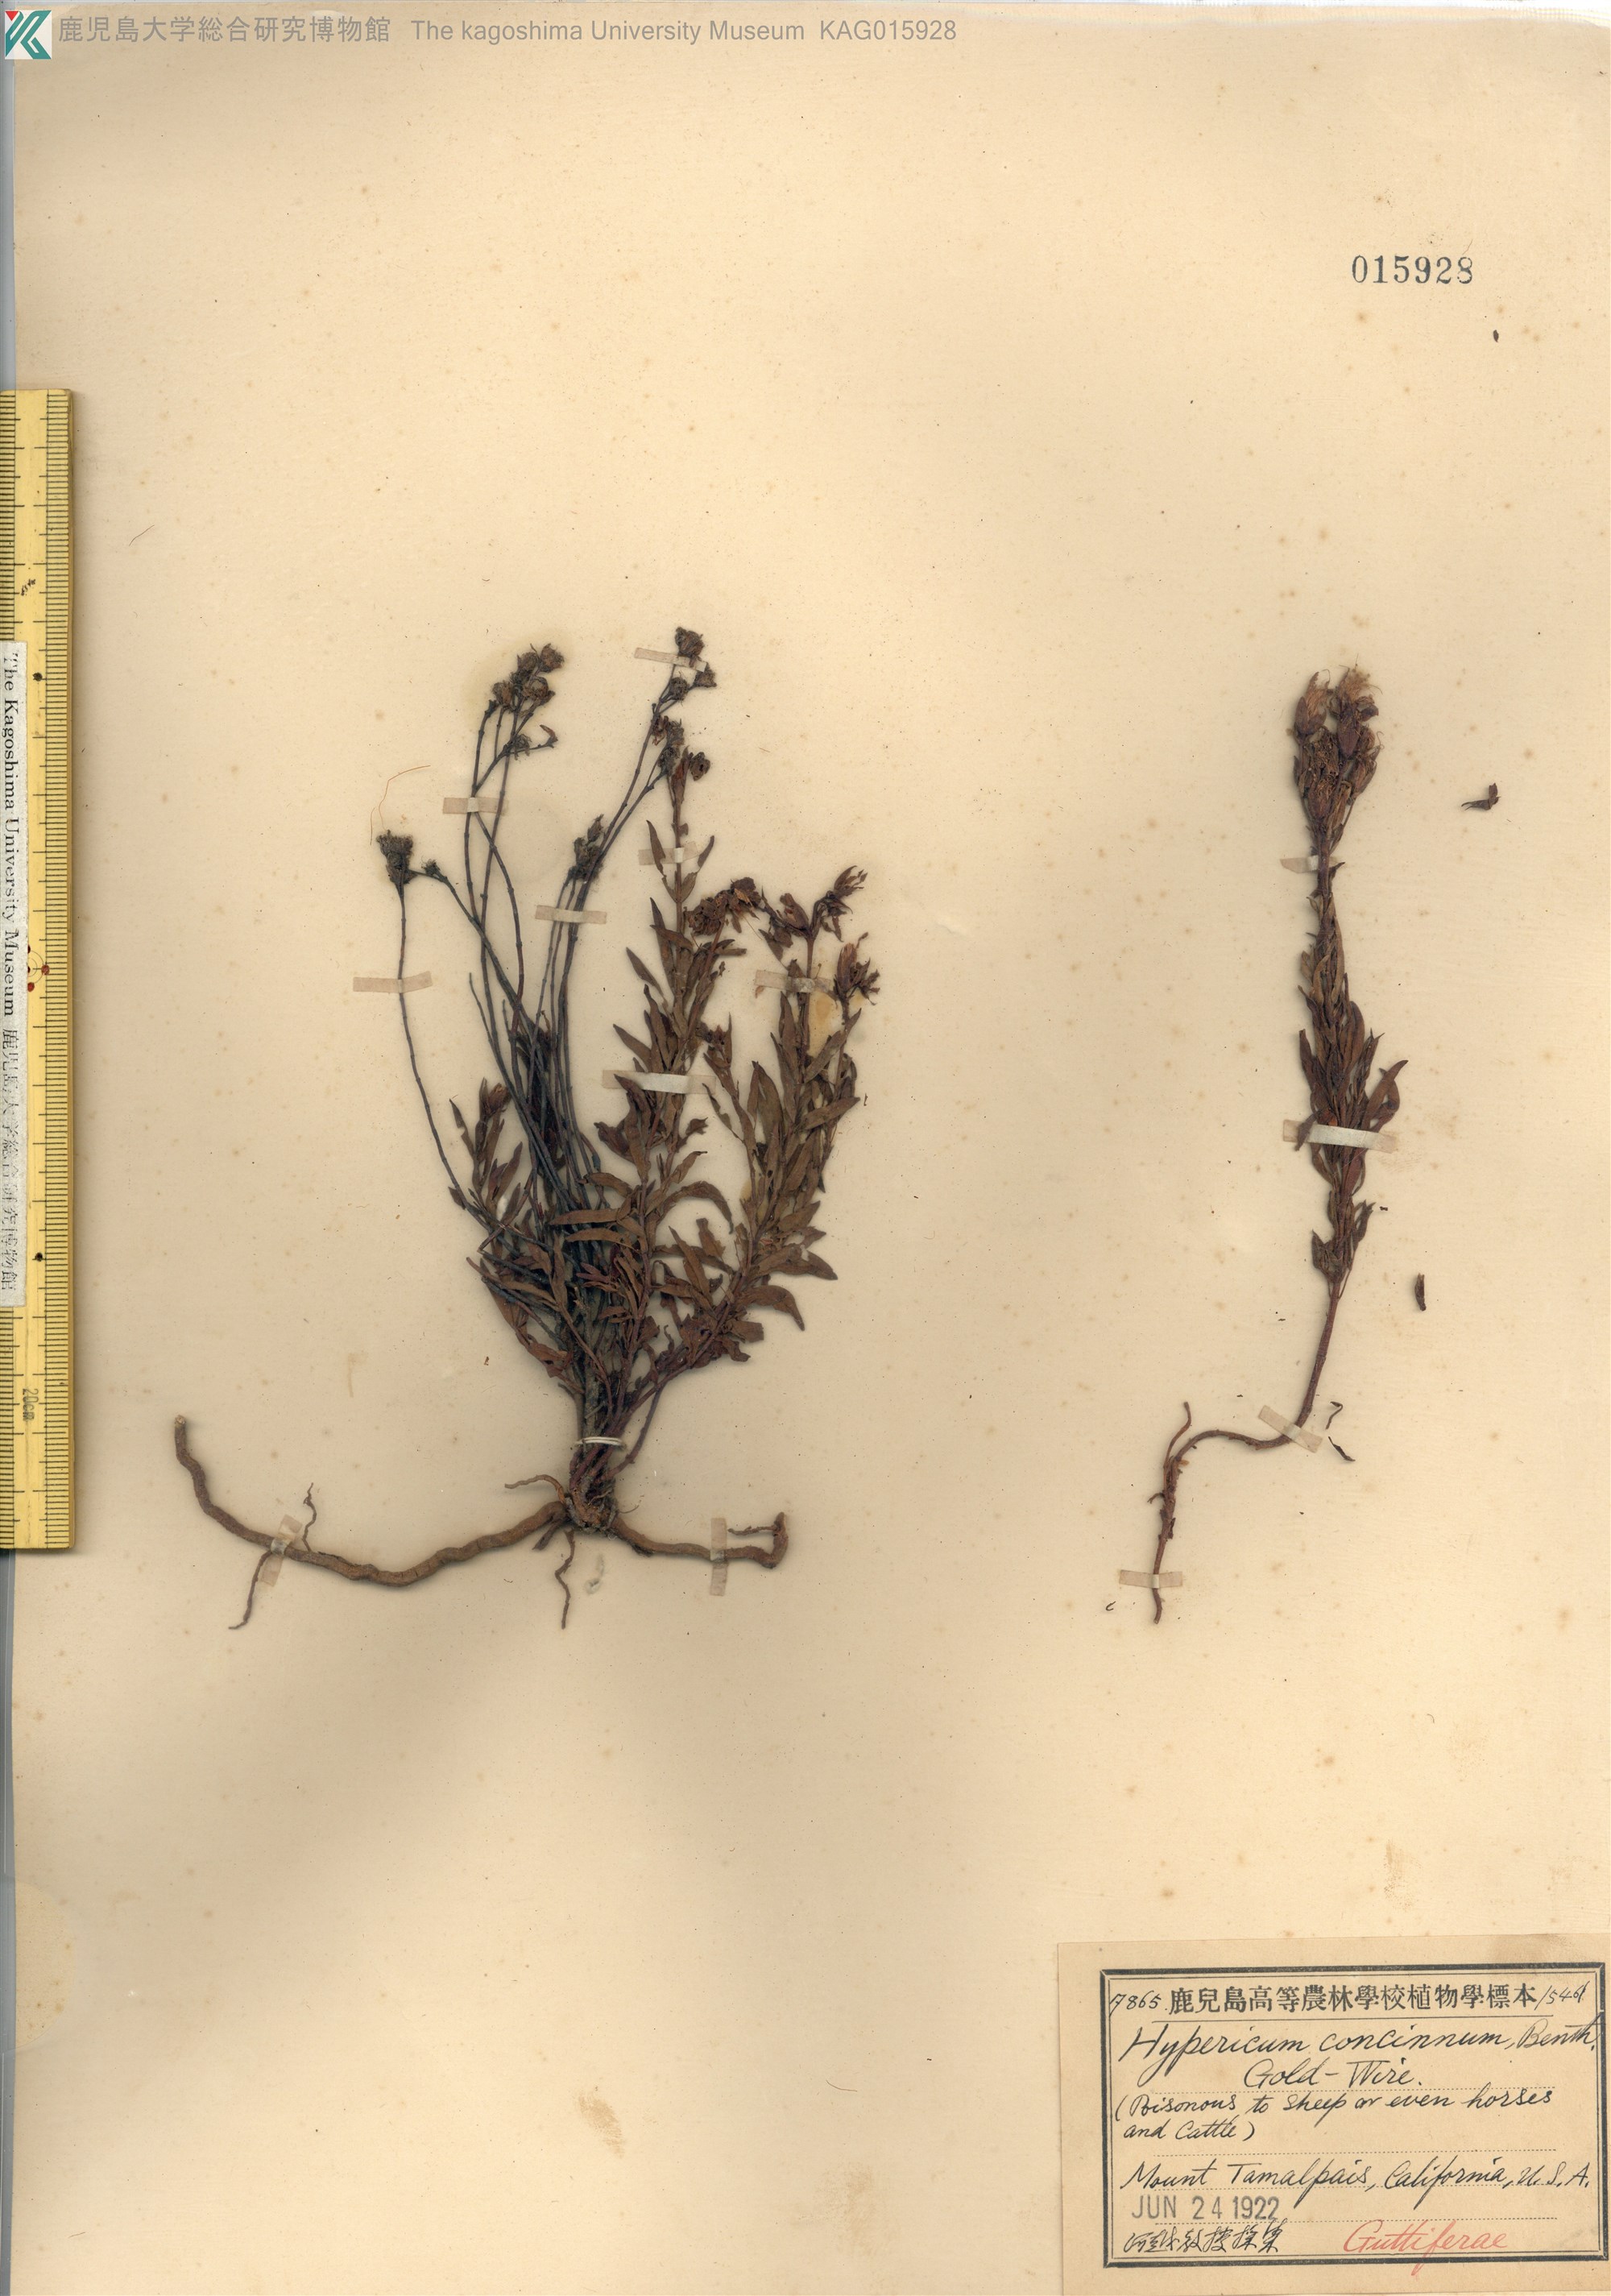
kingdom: Plantae
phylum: Tracheophyta
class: Magnoliopsida
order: Malpighiales
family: Hypericaceae
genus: Hypericum
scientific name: Hypericum concinnum
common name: Gold-wire
